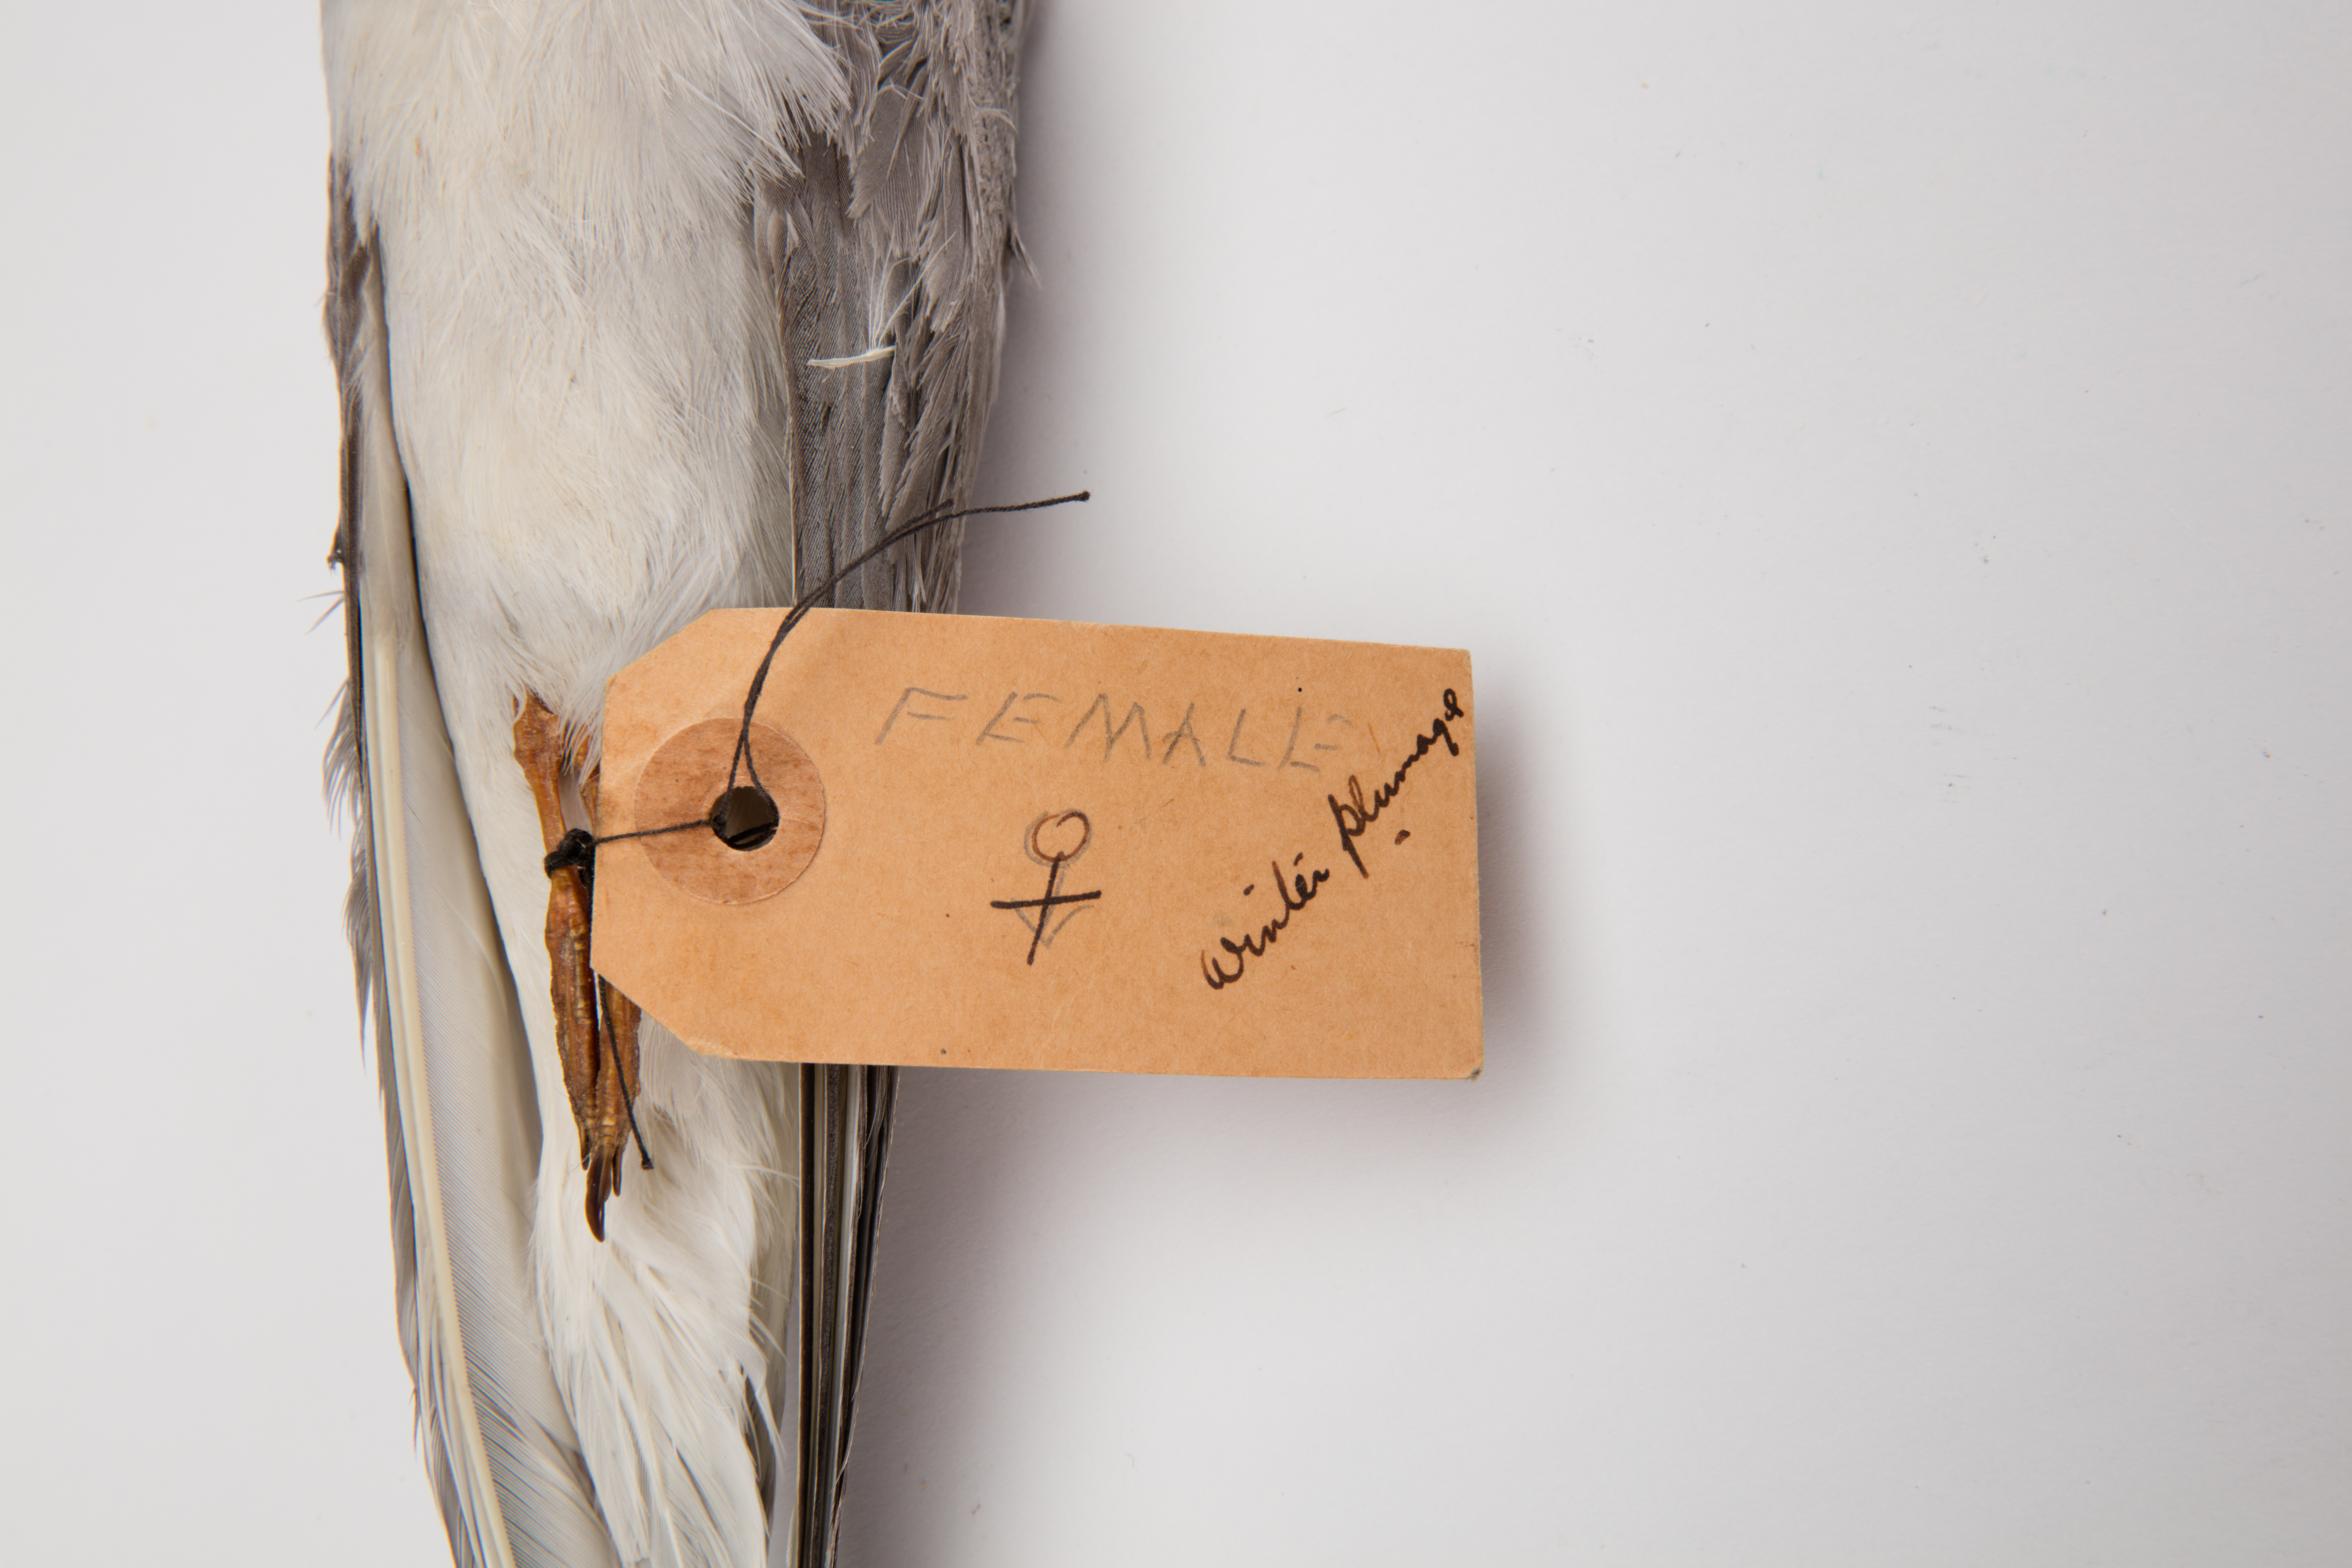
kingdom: Animalia
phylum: Chordata
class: Aves
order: Charadriiformes
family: Laridae
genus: Chlidonias
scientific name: Chlidonias albostriatus
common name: Black-fronted tern
